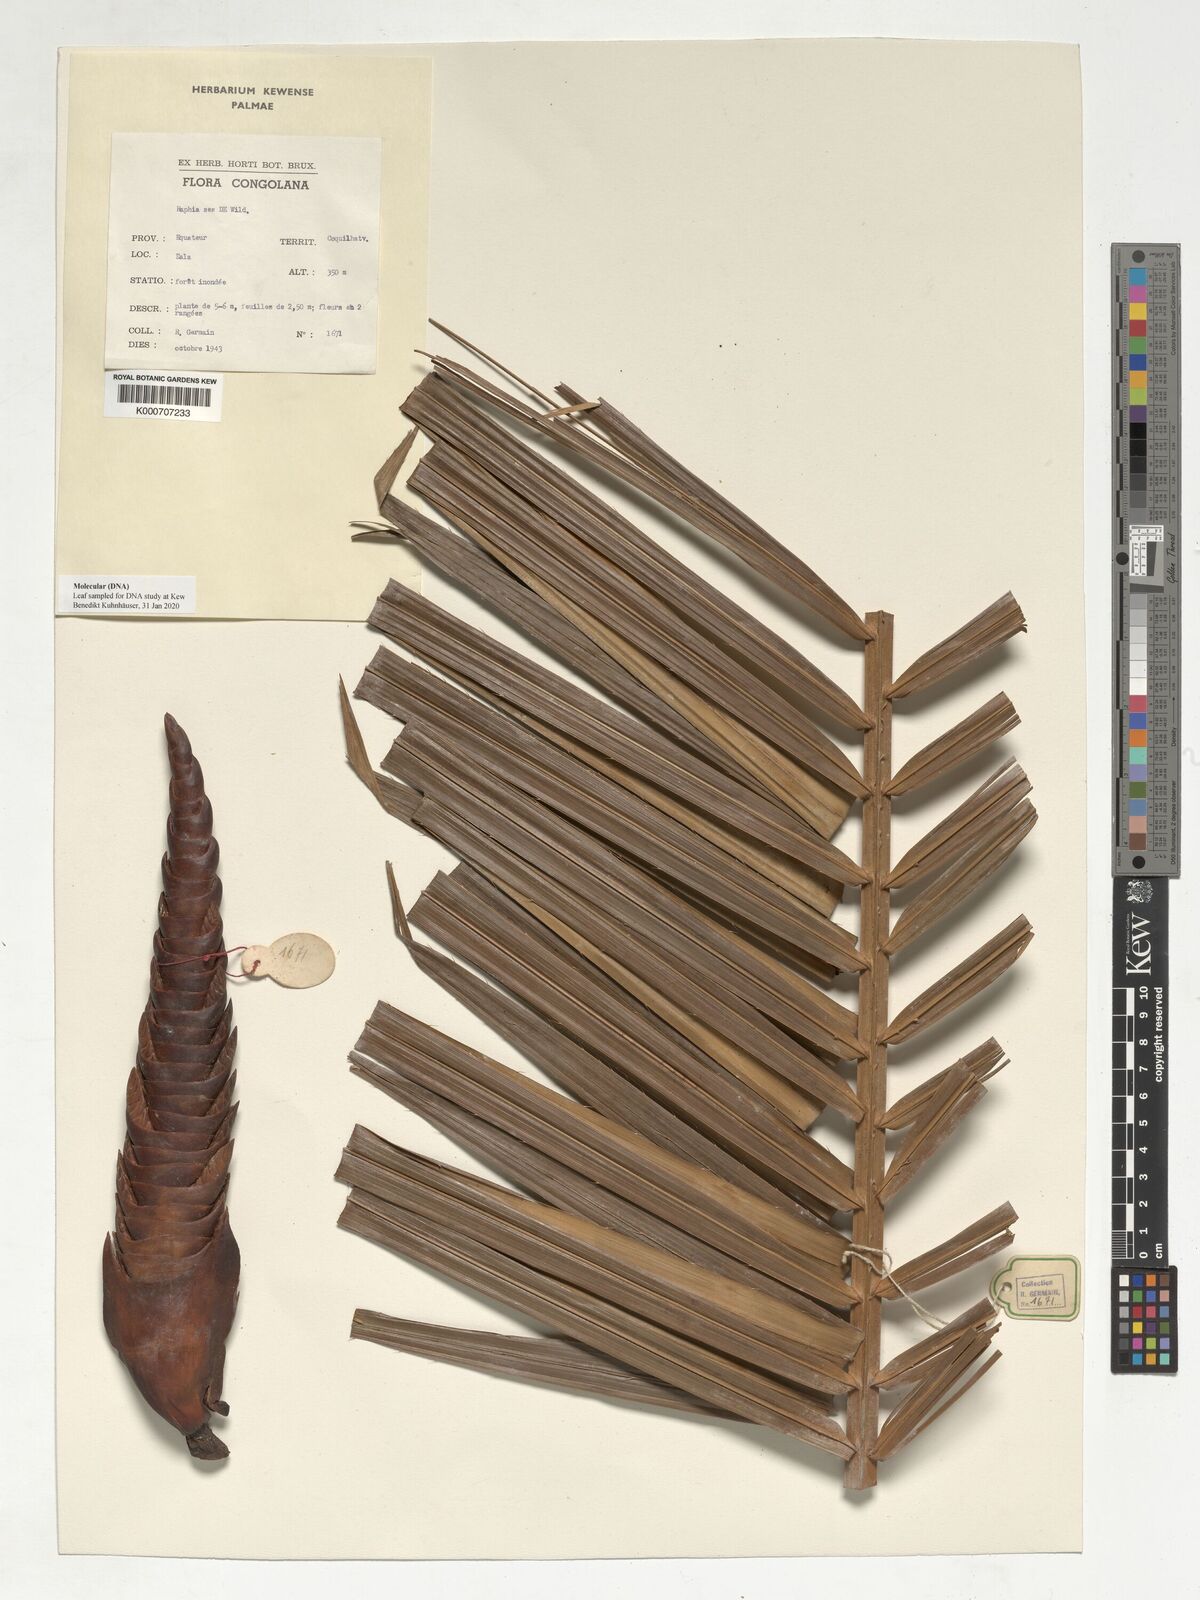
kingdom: Plantae
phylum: Tracheophyta
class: Liliopsida
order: Arecales
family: Arecaceae
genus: Raphia
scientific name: Raphia sese
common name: Raphia palm
